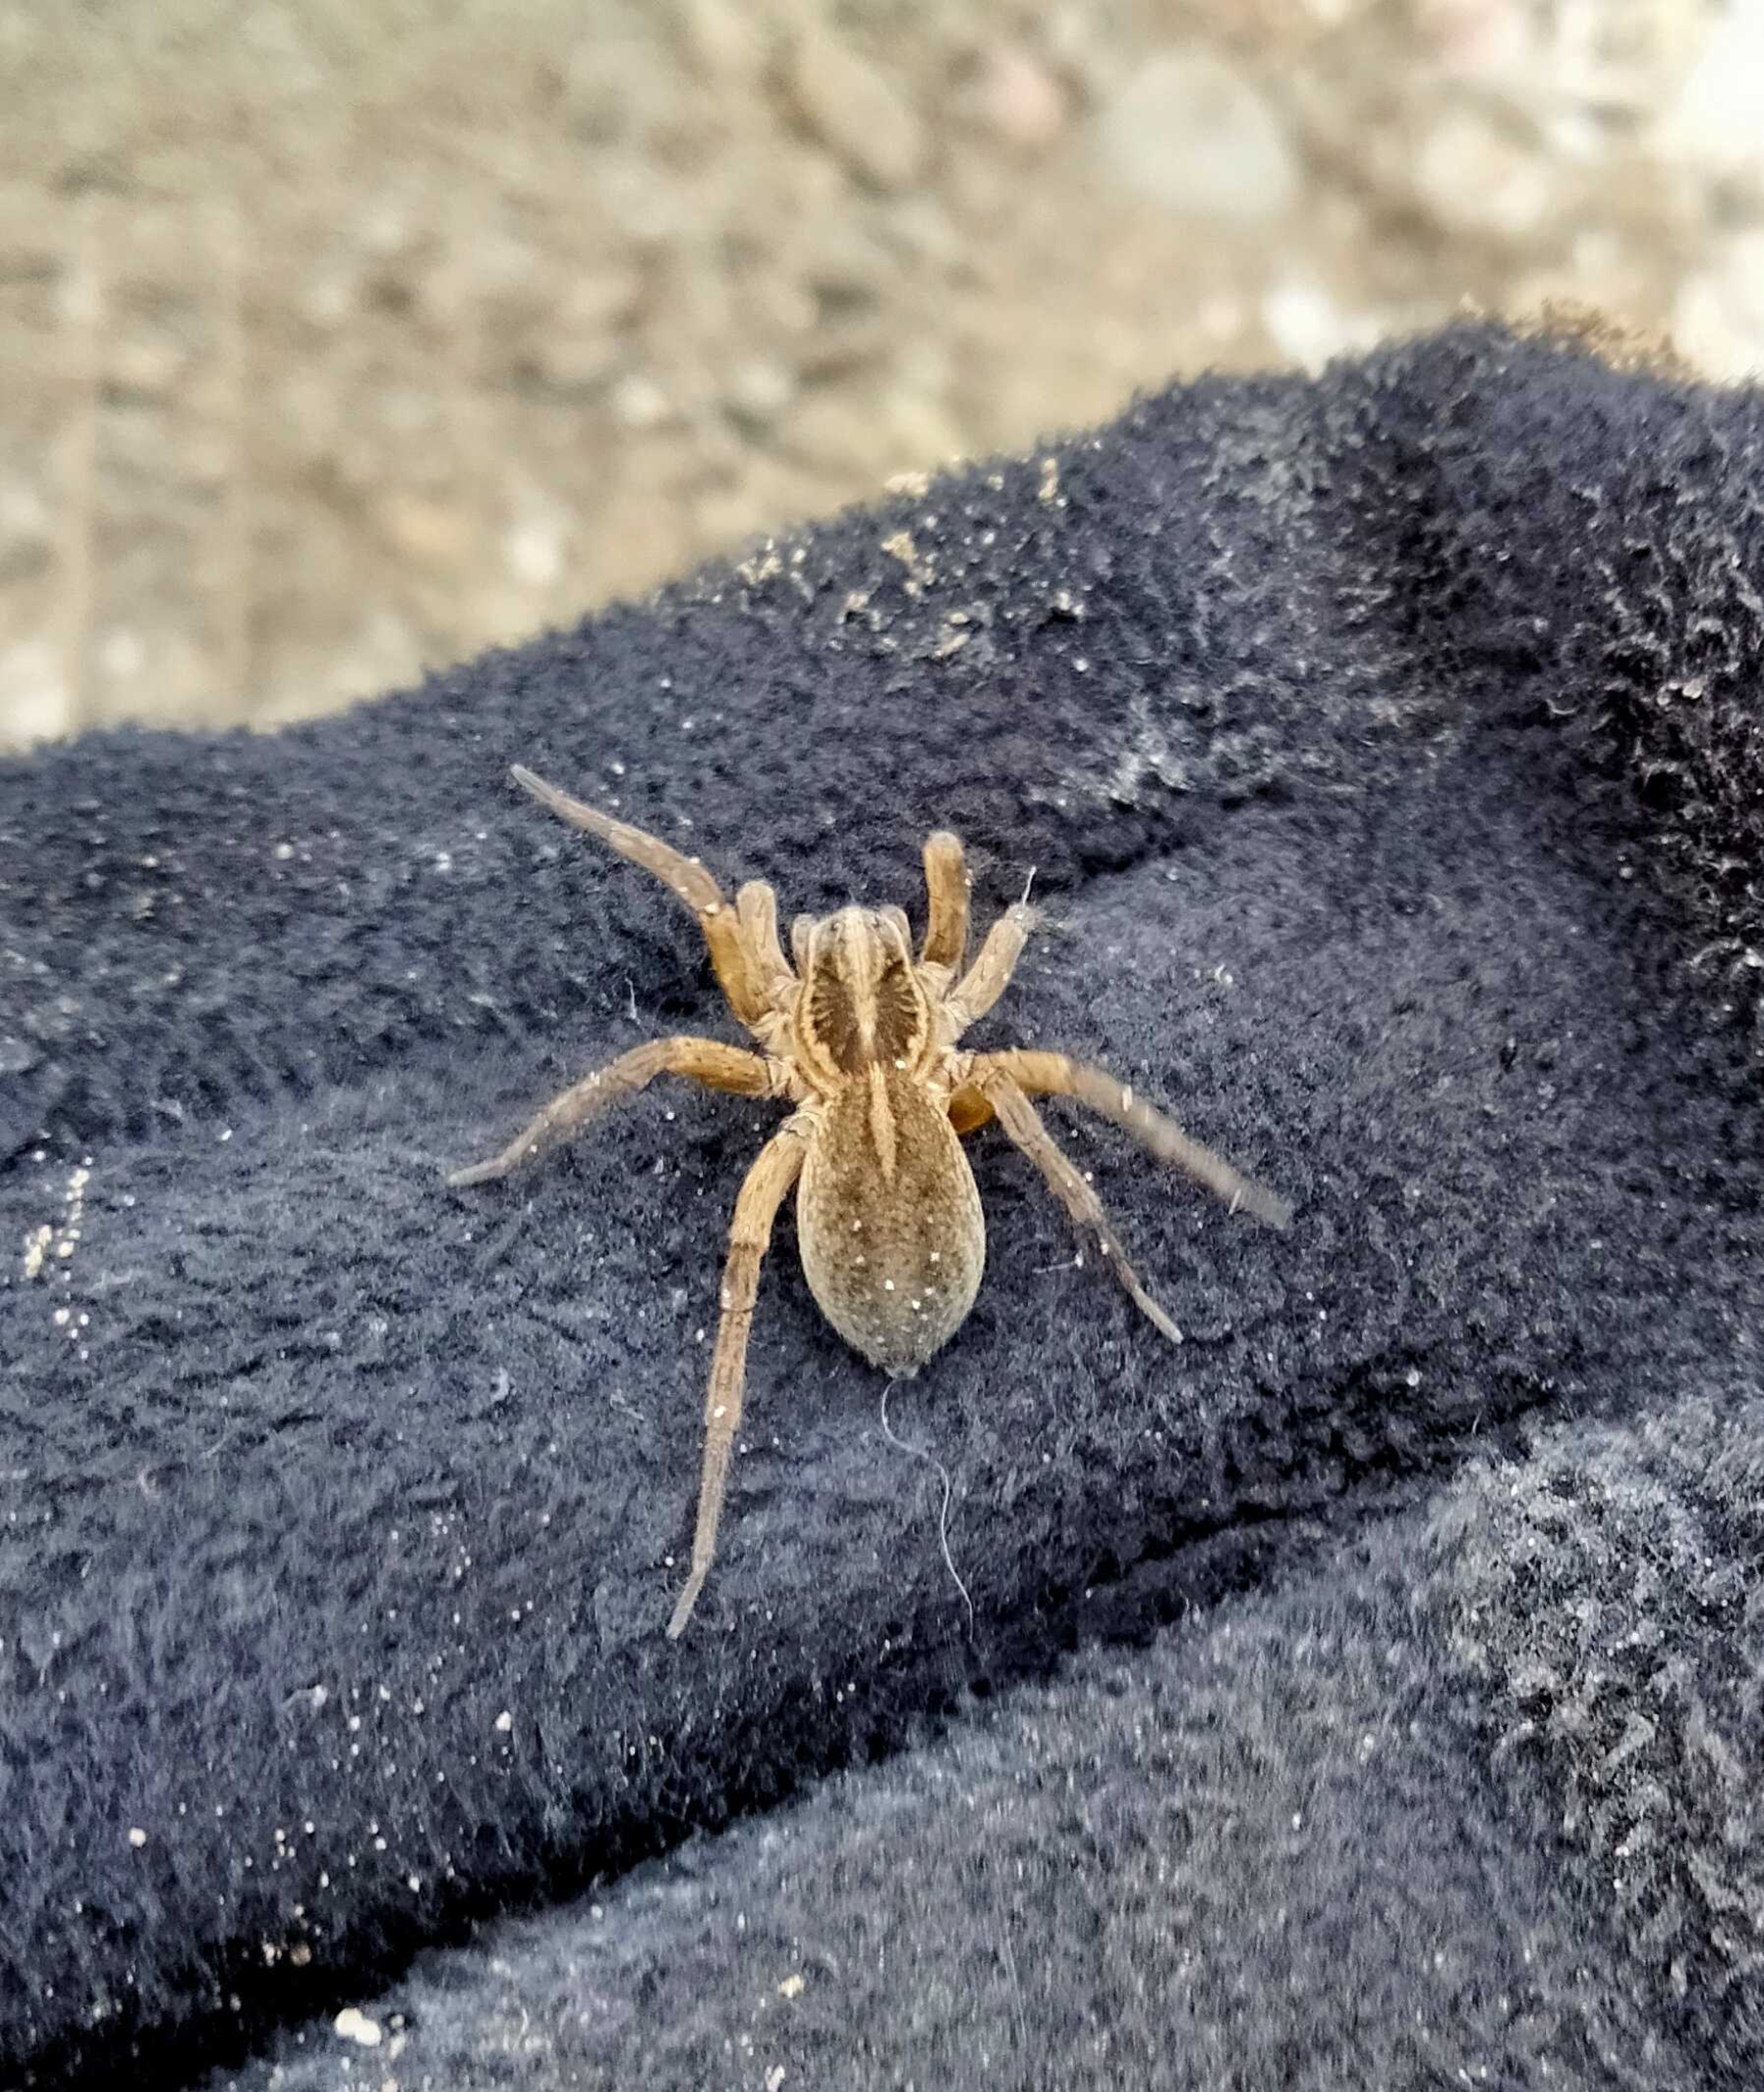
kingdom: Animalia
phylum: Arthropoda
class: Arachnida
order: Araneae
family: Lycosidae
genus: Trochosa
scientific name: Trochosa robusta
